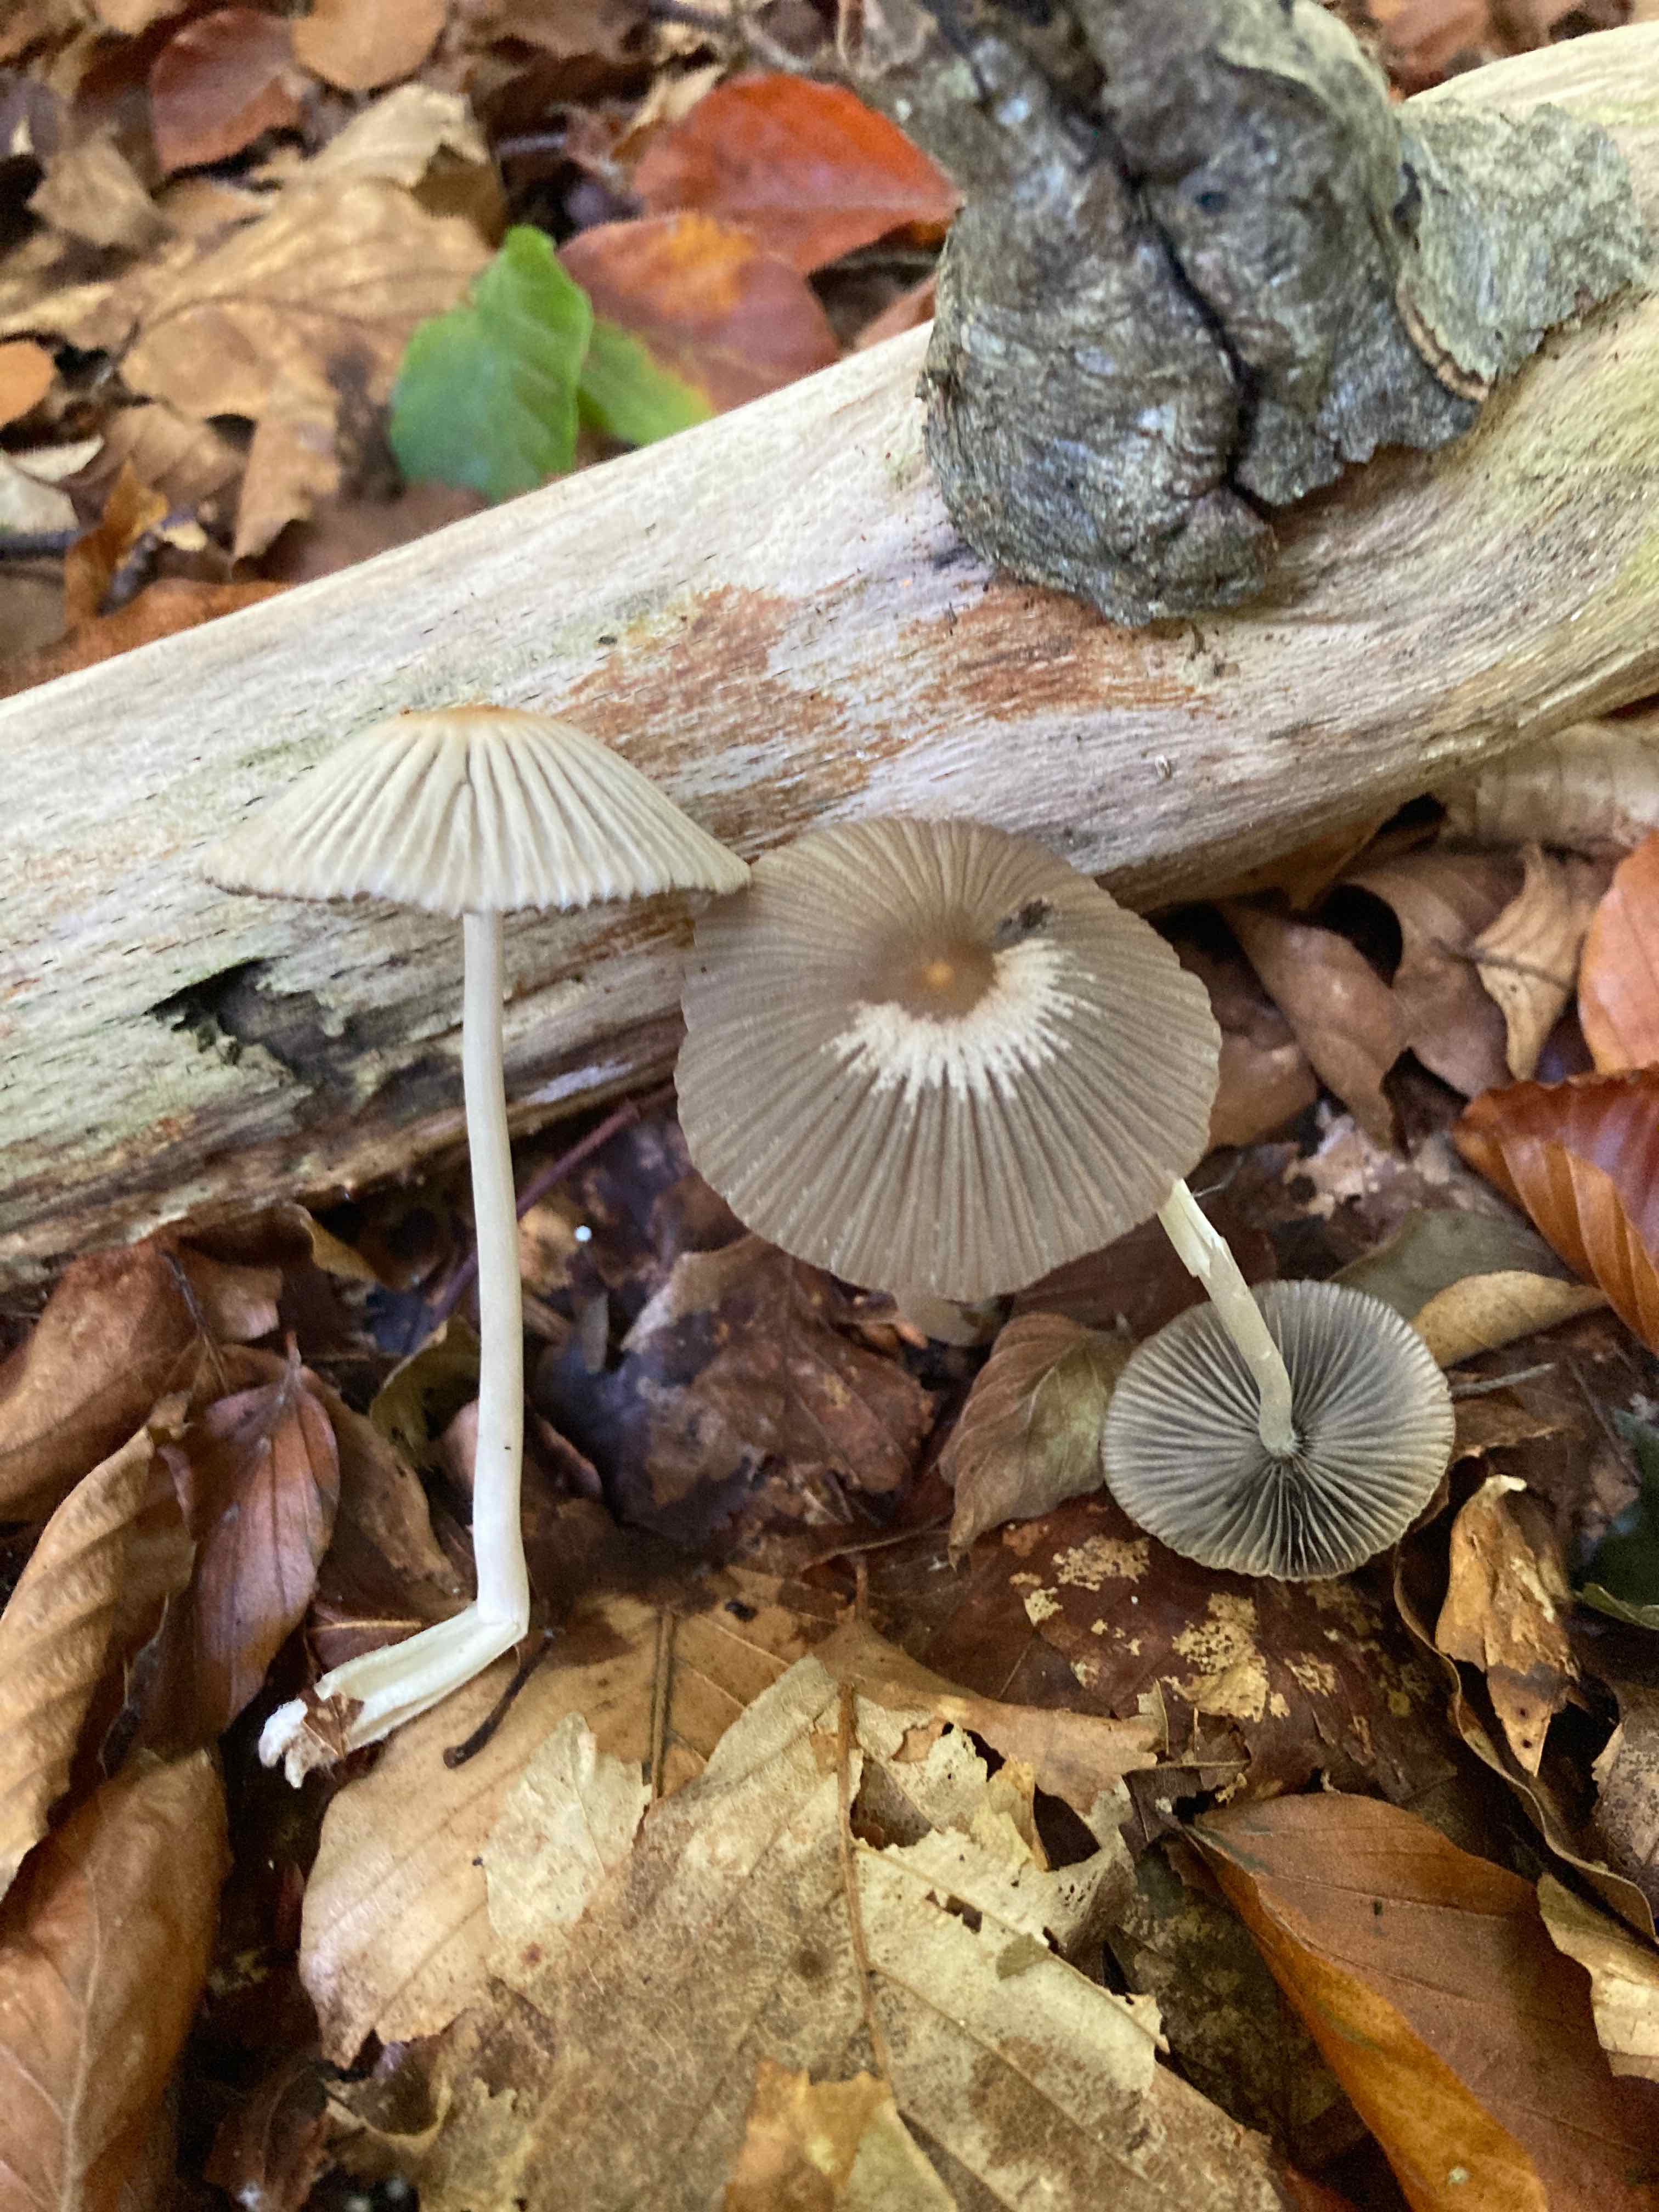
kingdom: Fungi
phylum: Basidiomycota
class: Agaricomycetes
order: Agaricales
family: Psathyrellaceae
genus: Tulosesus
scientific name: Tulosesus impatiens
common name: furet blækhat
